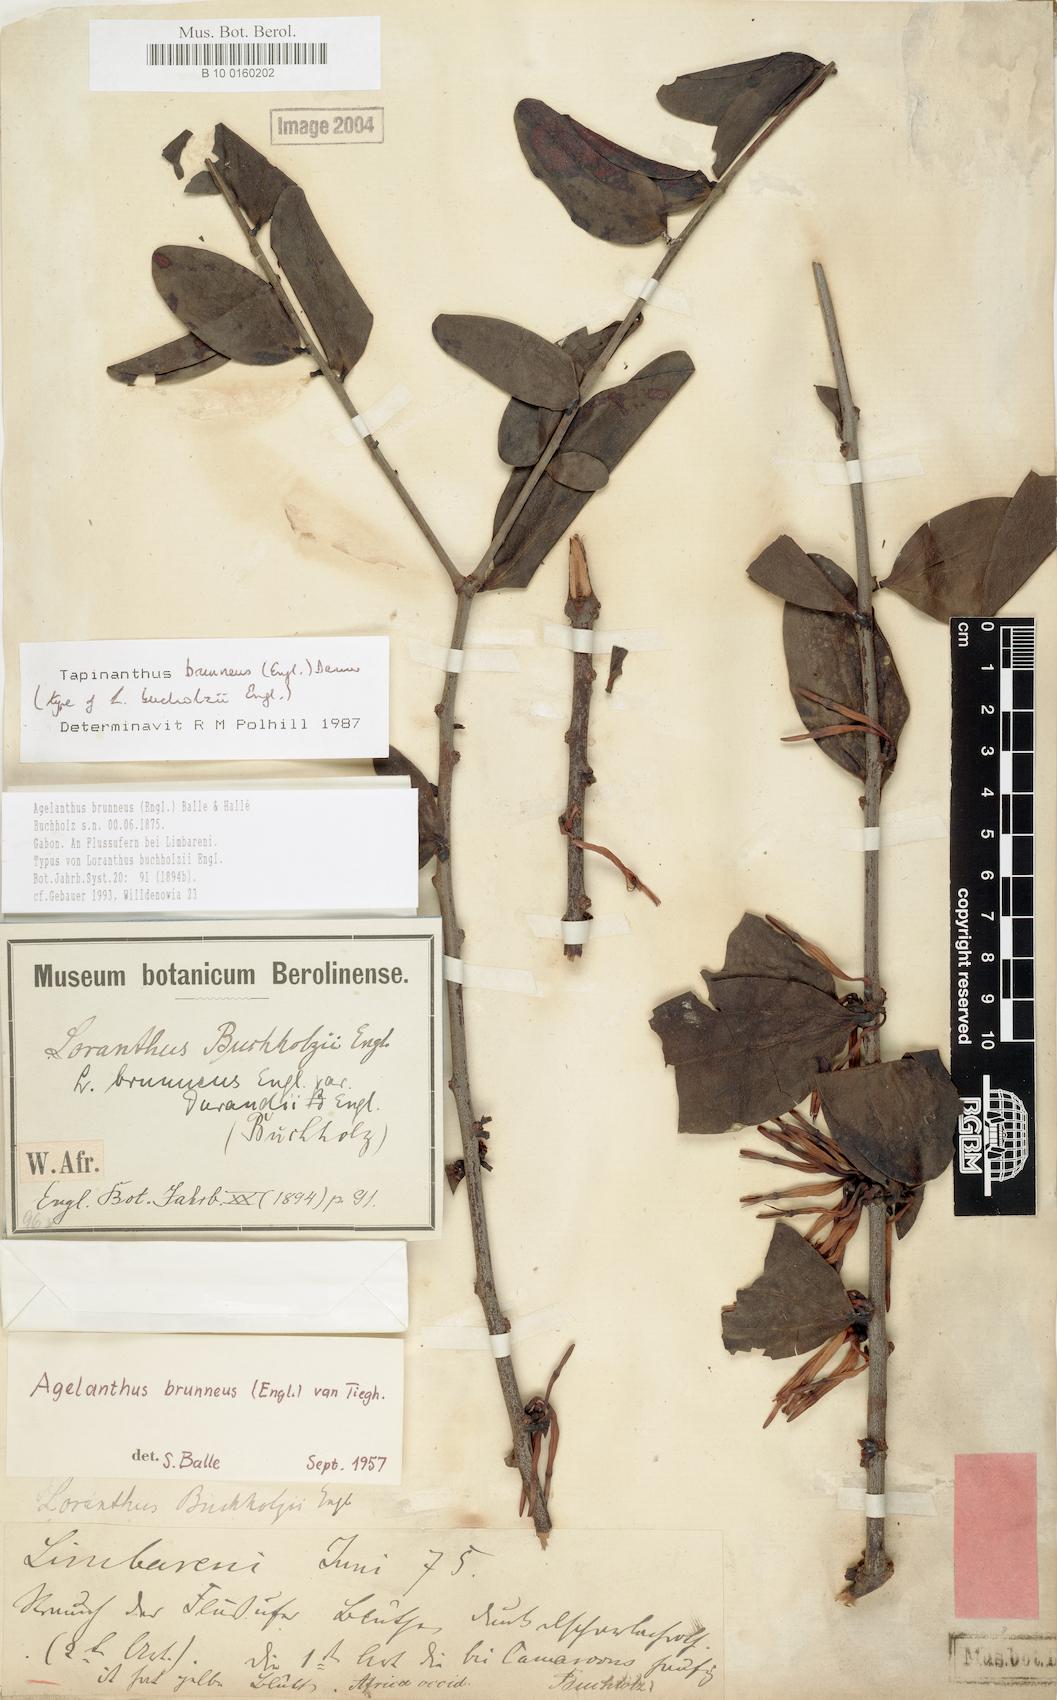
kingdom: Plantae
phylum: Tracheophyta
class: Magnoliopsida
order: Santalales
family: Loranthaceae
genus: Agelanthus
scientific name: Agelanthus brunneus
